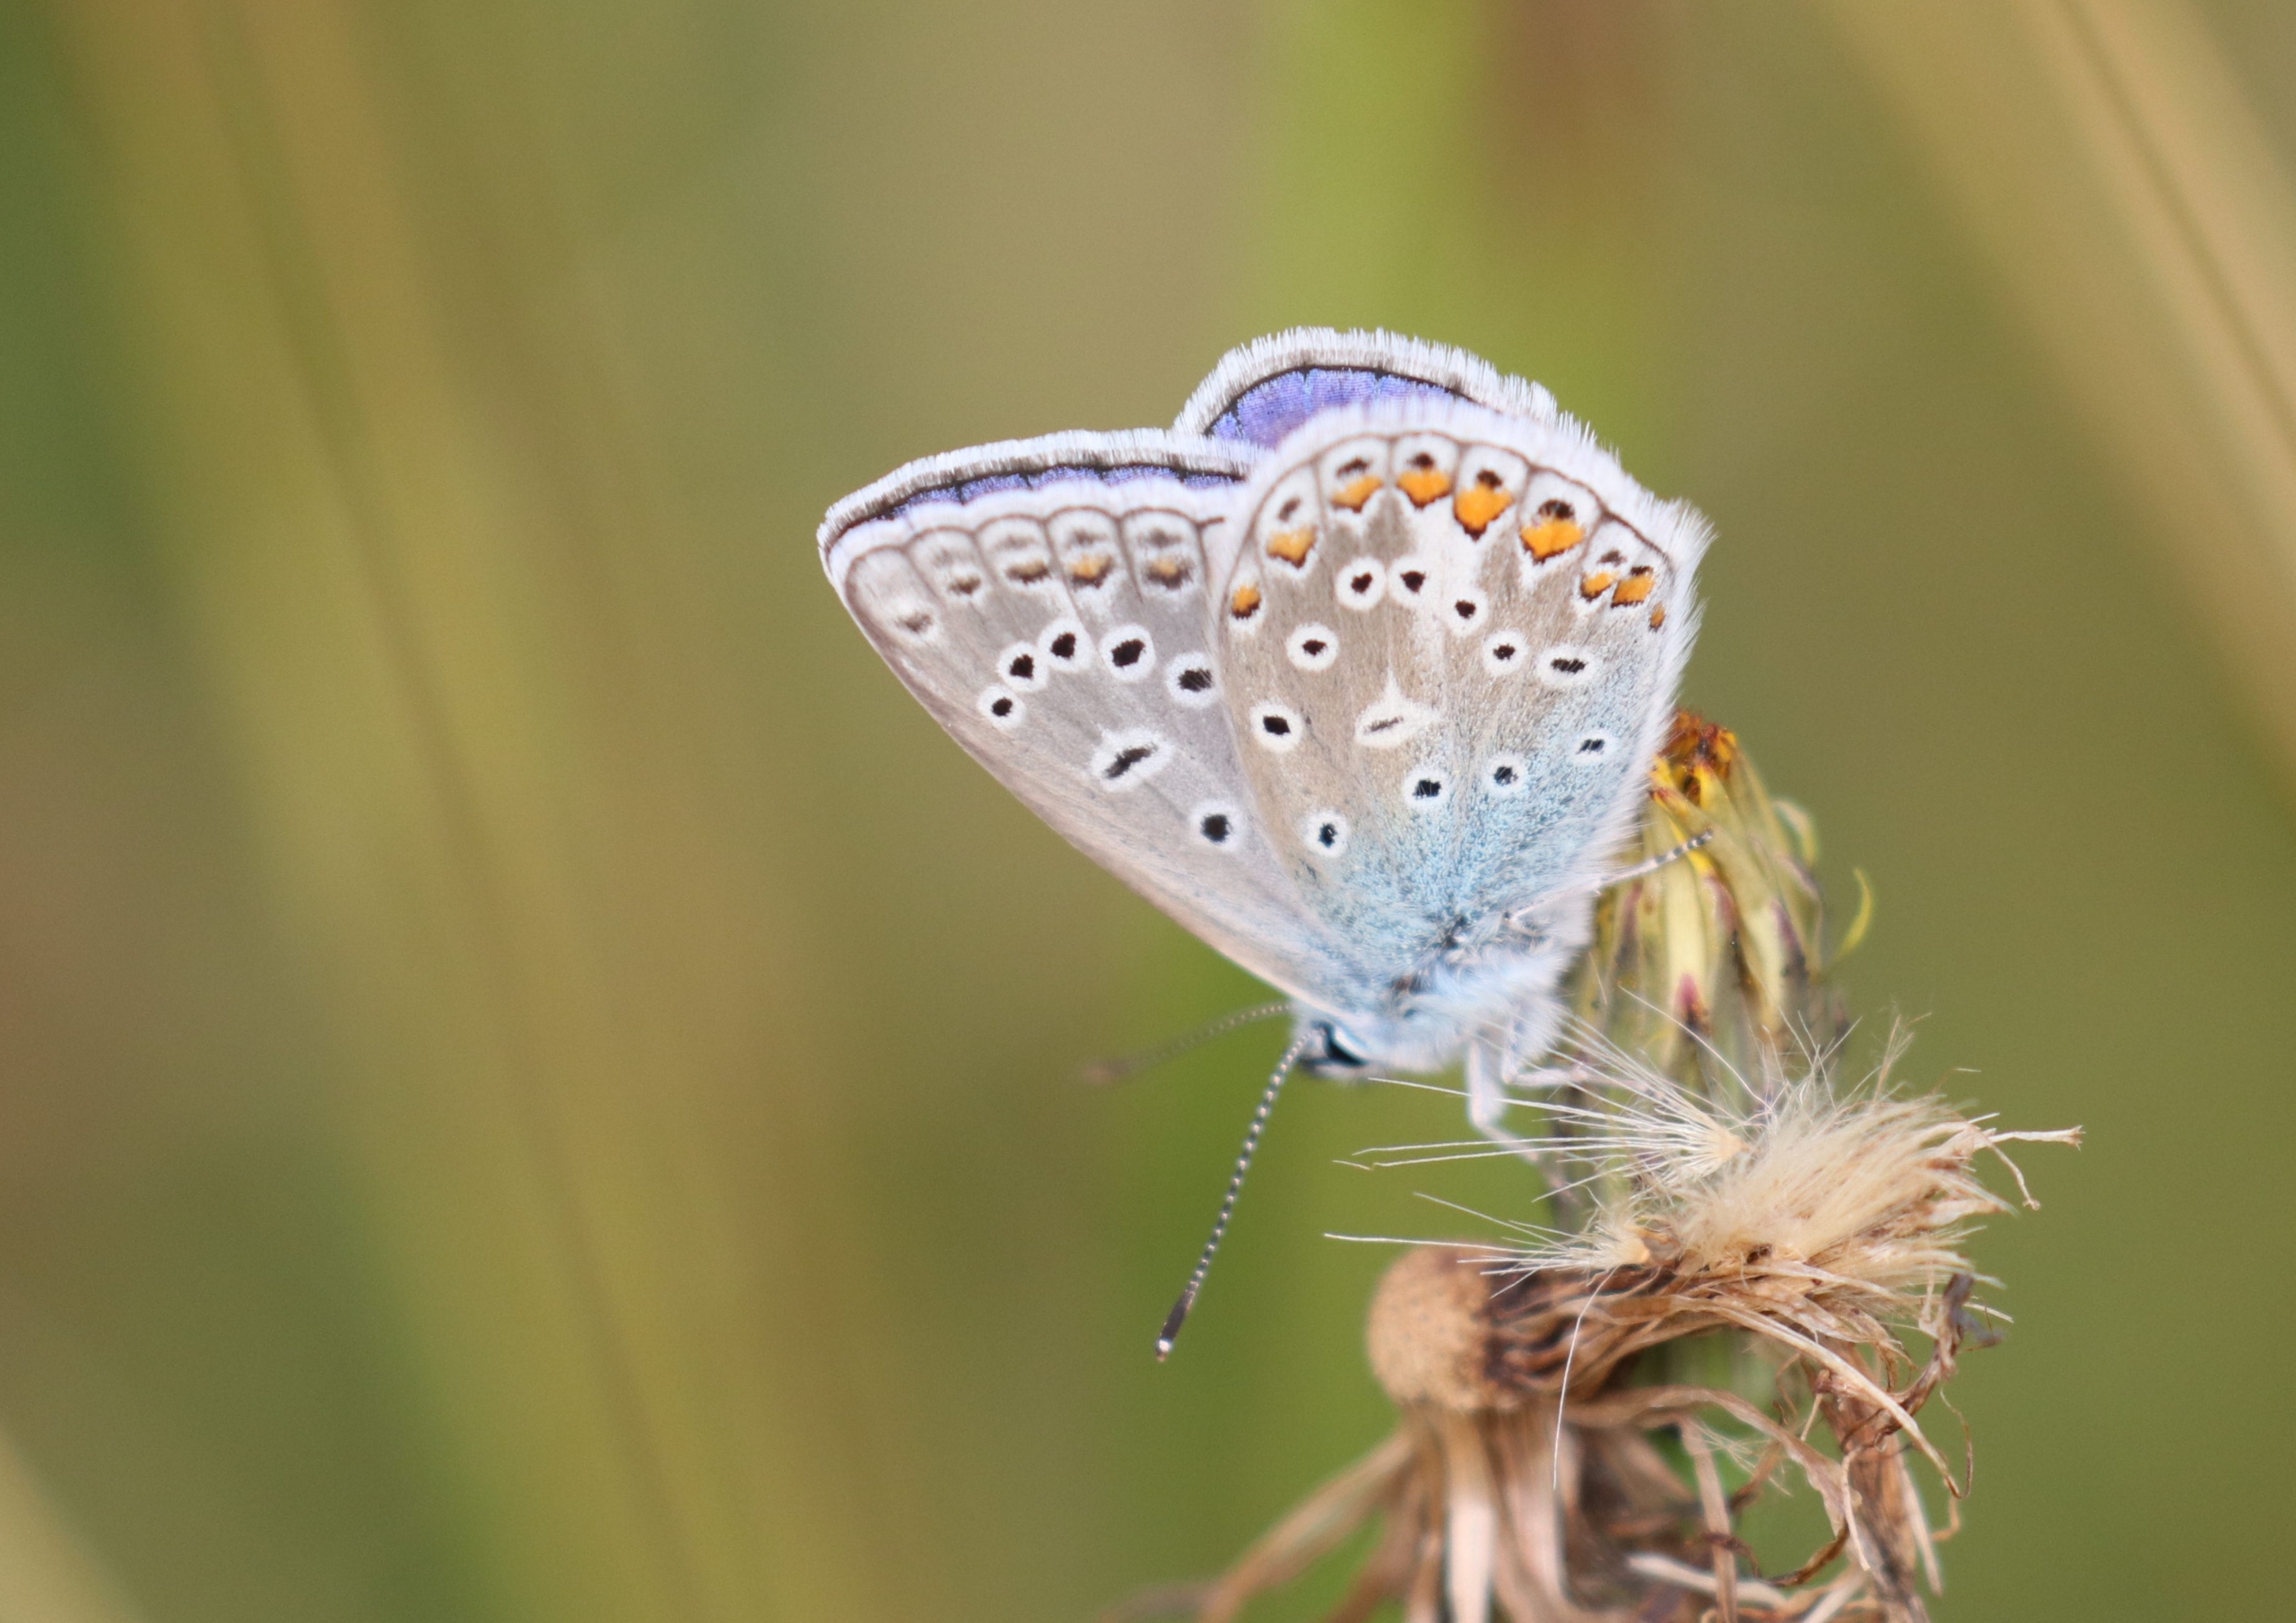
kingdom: Animalia
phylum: Arthropoda
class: Insecta
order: Lepidoptera
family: Lycaenidae
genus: Polyommatus
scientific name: Polyommatus icarus
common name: Almindelig blåfugl
